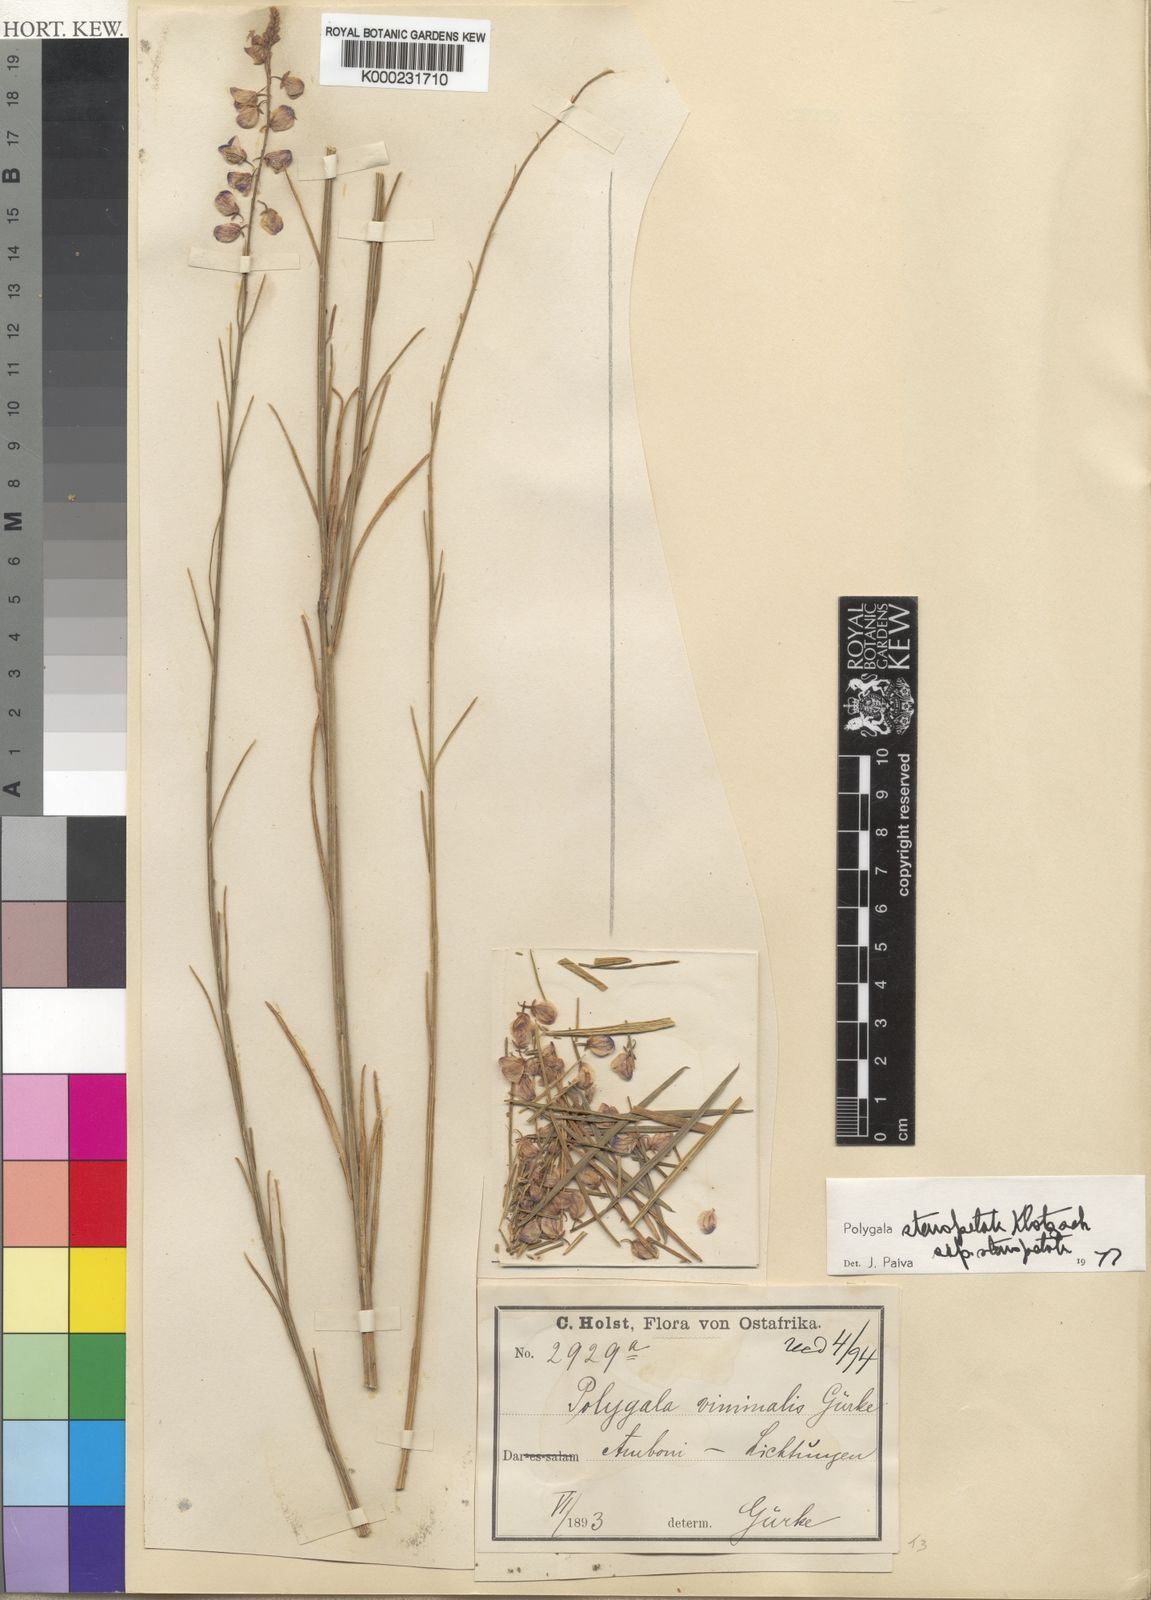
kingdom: Plantae
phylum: Tracheophyta
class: Magnoliopsida
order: Fabales
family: Polygalaceae
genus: Polygala
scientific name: Polygala stenopetala
